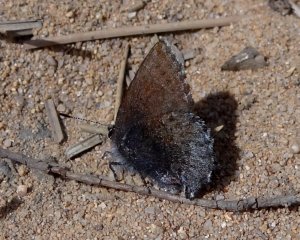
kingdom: Animalia
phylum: Arthropoda
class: Insecta
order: Lepidoptera
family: Lycaenidae
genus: Callophrys
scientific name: Callophrys polios
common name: Hoary Elfin
